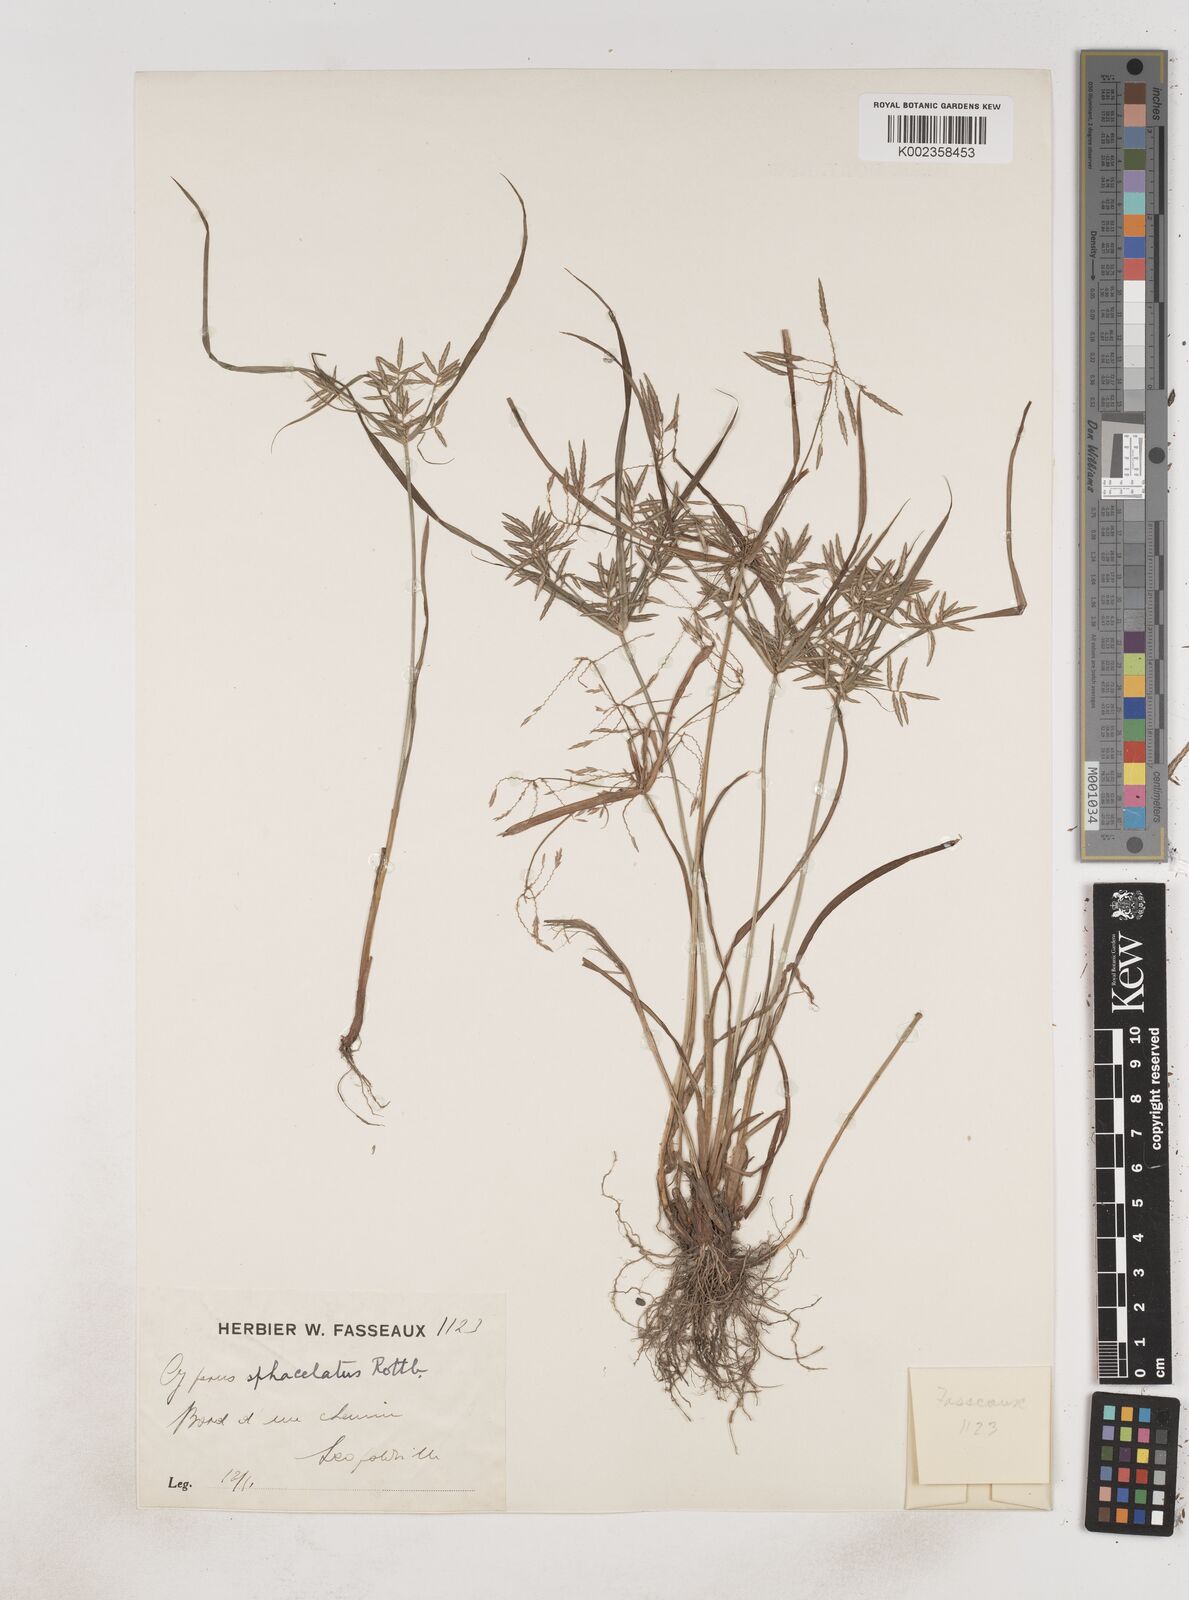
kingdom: Plantae
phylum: Tracheophyta
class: Liliopsida
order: Poales
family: Cyperaceae
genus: Cyperus
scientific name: Cyperus sphacelatus
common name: Roadside flatsedge
